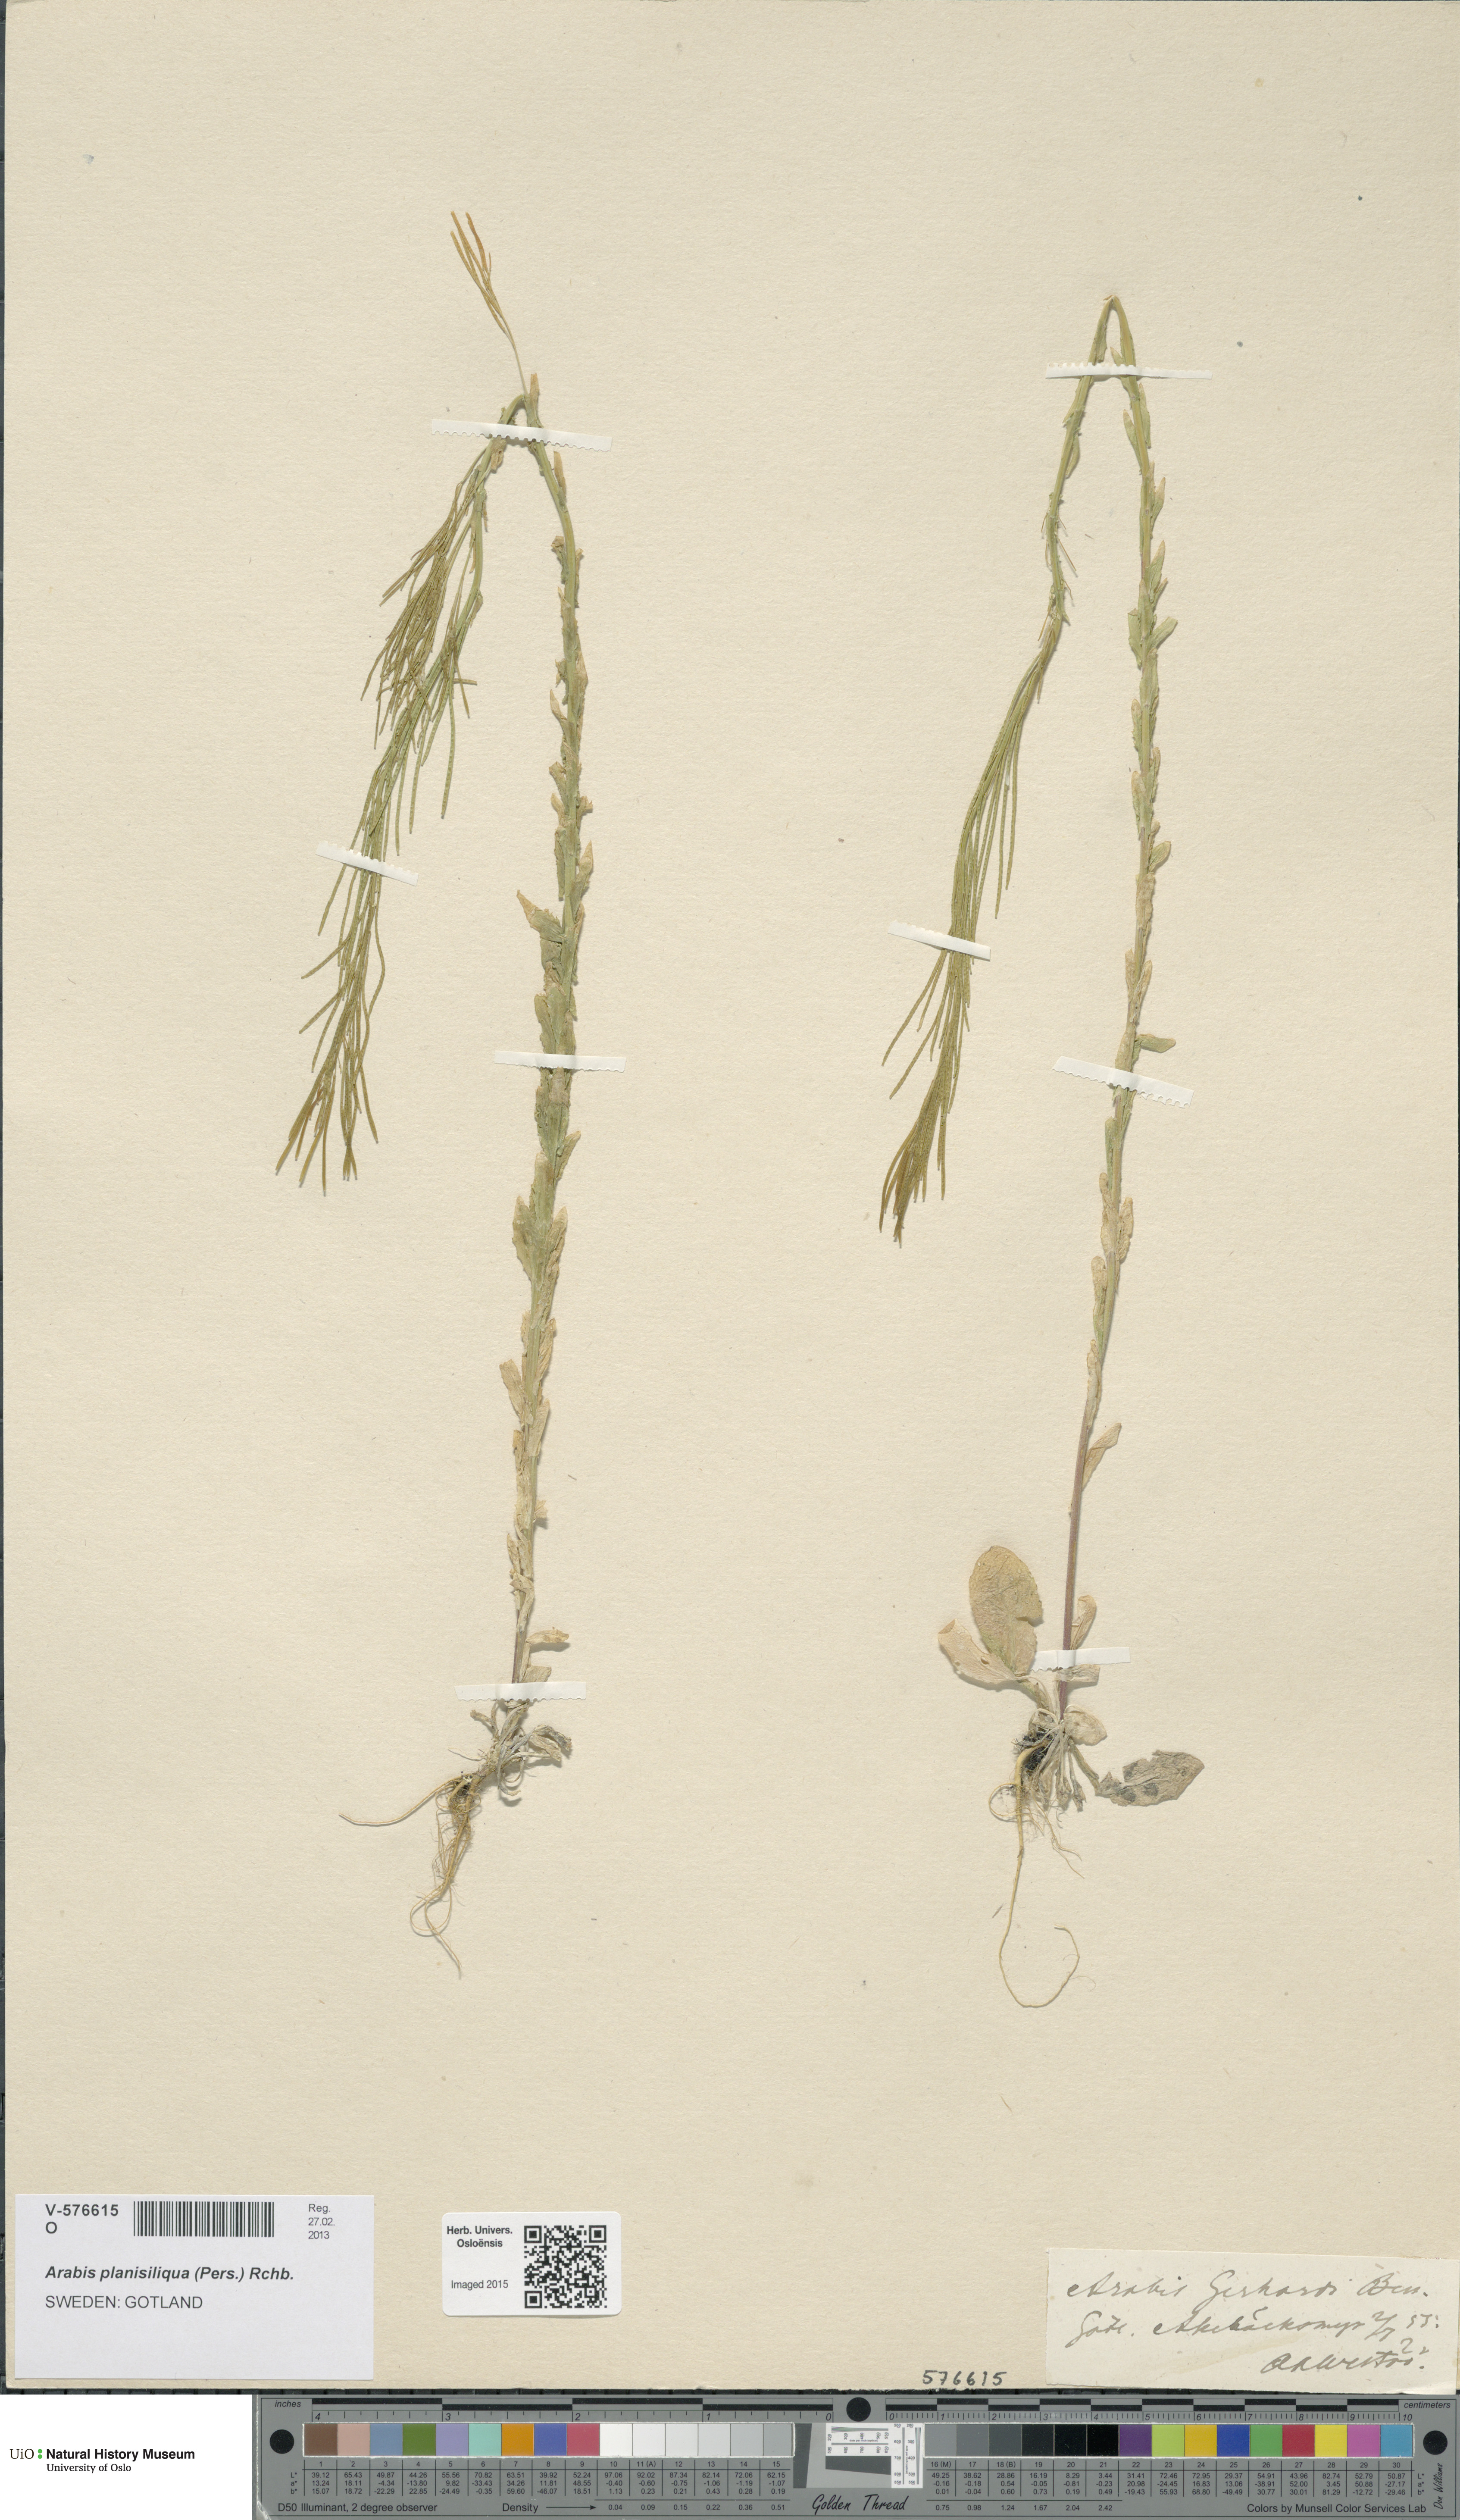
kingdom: Plantae
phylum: Tracheophyta
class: Magnoliopsida
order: Brassicales
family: Brassicaceae
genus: Arabis
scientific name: Arabis planisiliqua
